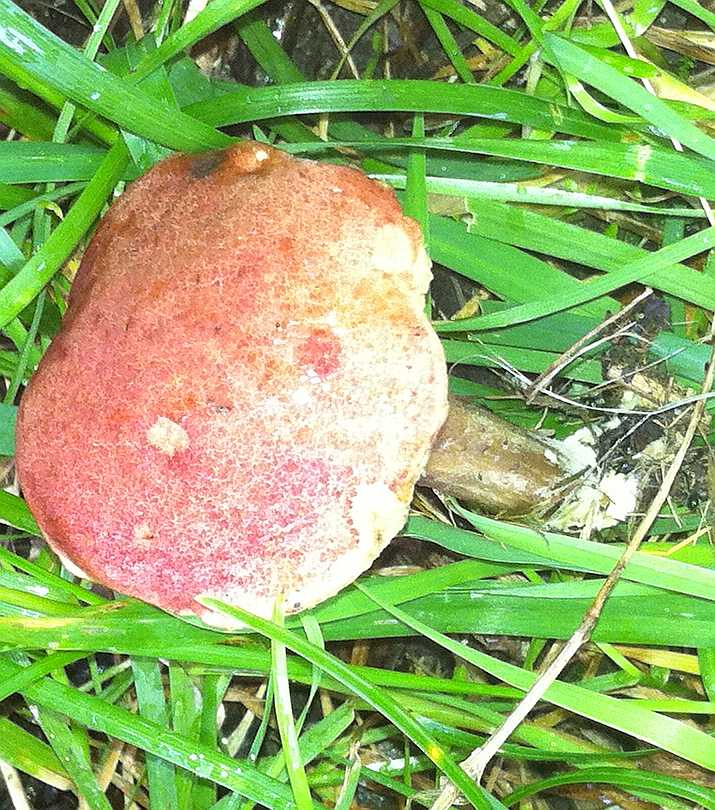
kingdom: Fungi
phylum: Basidiomycota
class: Agaricomycetes
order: Boletales
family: Boletaceae
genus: Hortiboletus
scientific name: Hortiboletus rubellus
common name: blodrød rørhat
